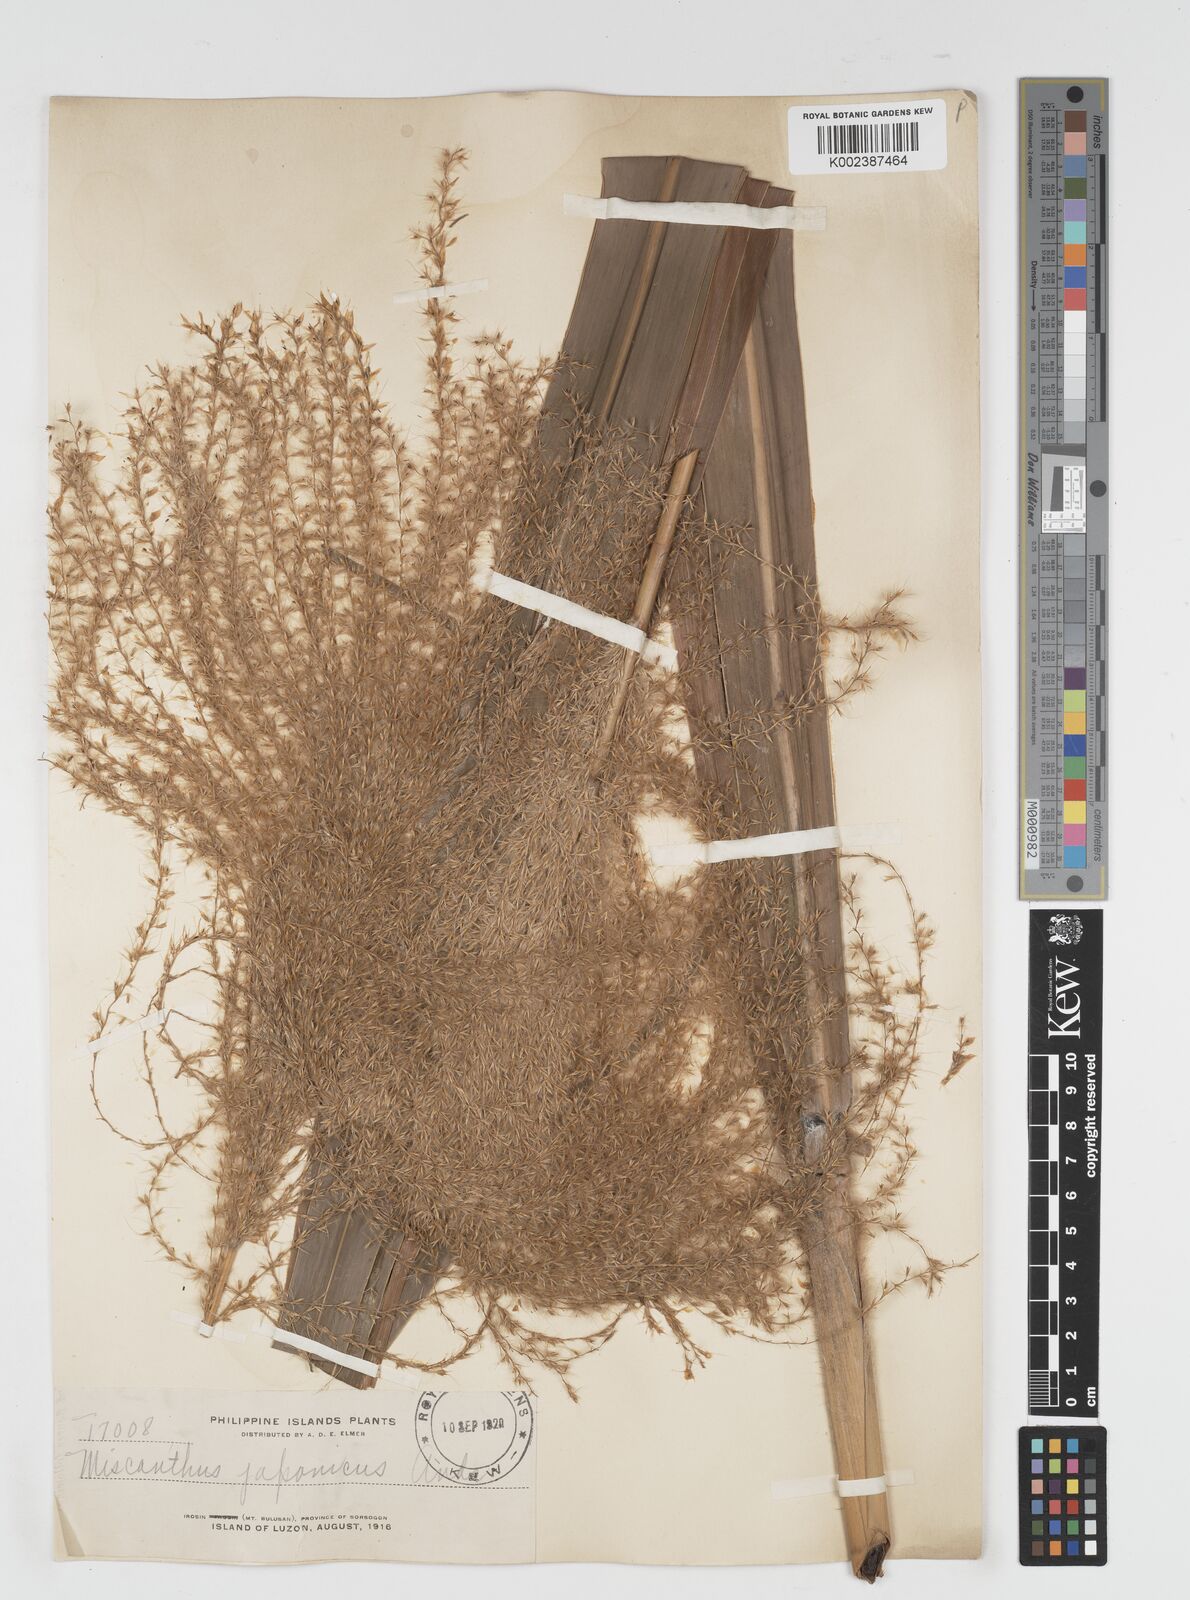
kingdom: Plantae
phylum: Tracheophyta
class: Liliopsida
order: Poales
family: Poaceae
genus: Miscanthus
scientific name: Miscanthus floridulus
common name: Pacific island silvergrass
